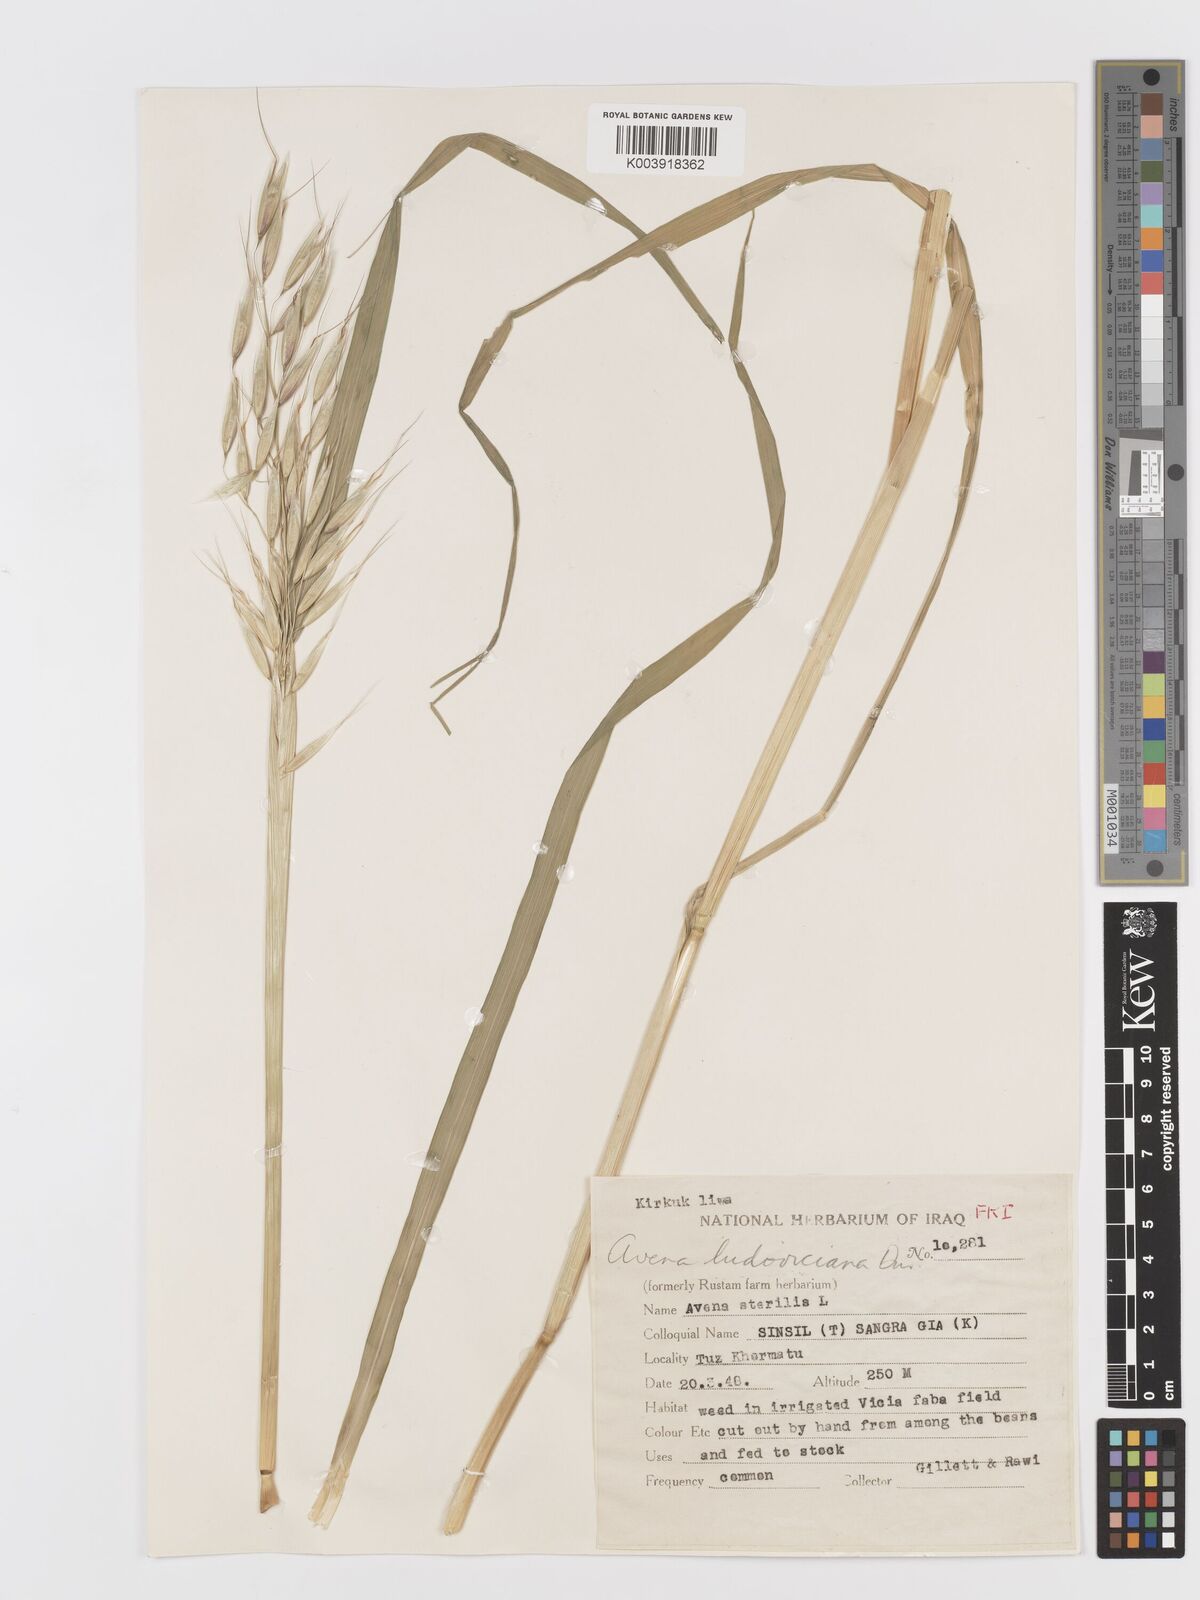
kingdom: Plantae
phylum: Tracheophyta
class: Liliopsida
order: Poales
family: Poaceae
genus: Avena
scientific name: Avena sterilis
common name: Animated oat
